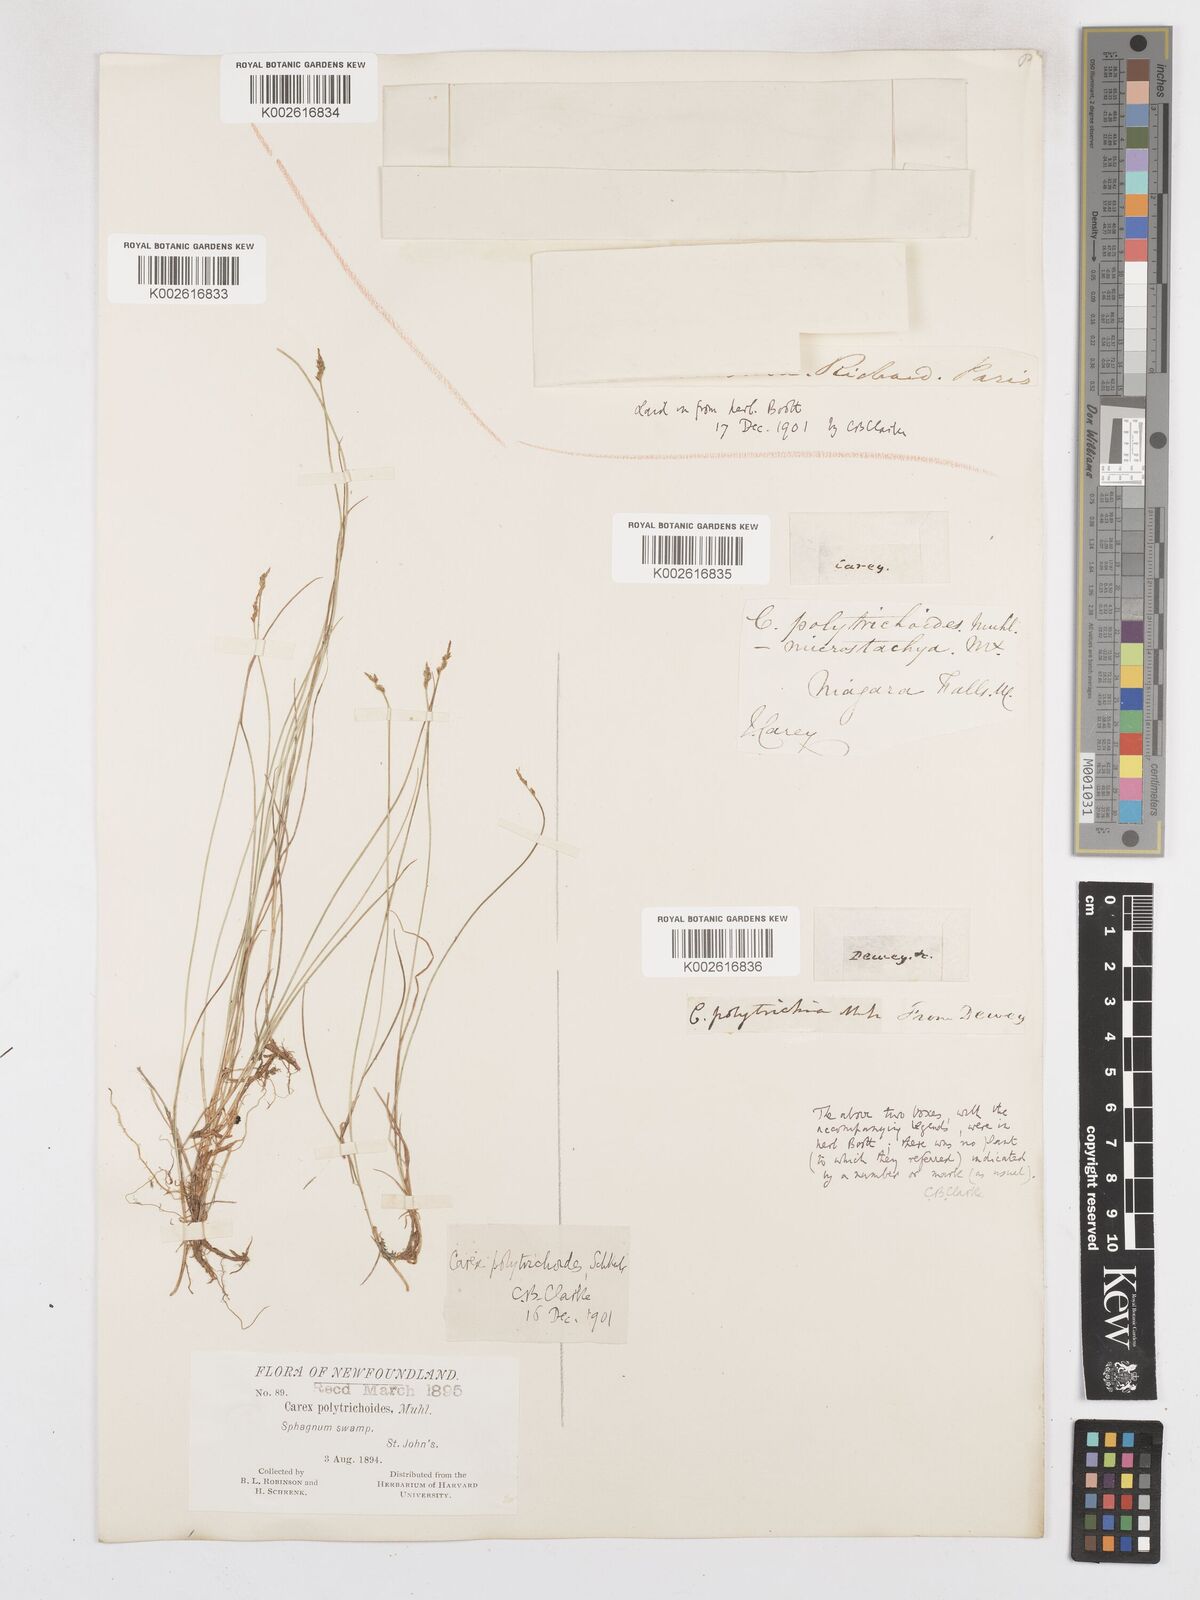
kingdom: Plantae
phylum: Tracheophyta
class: Liliopsida
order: Poales
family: Cyperaceae
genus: Carex
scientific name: Carex leptalea
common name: Bristly-stalked sedge
